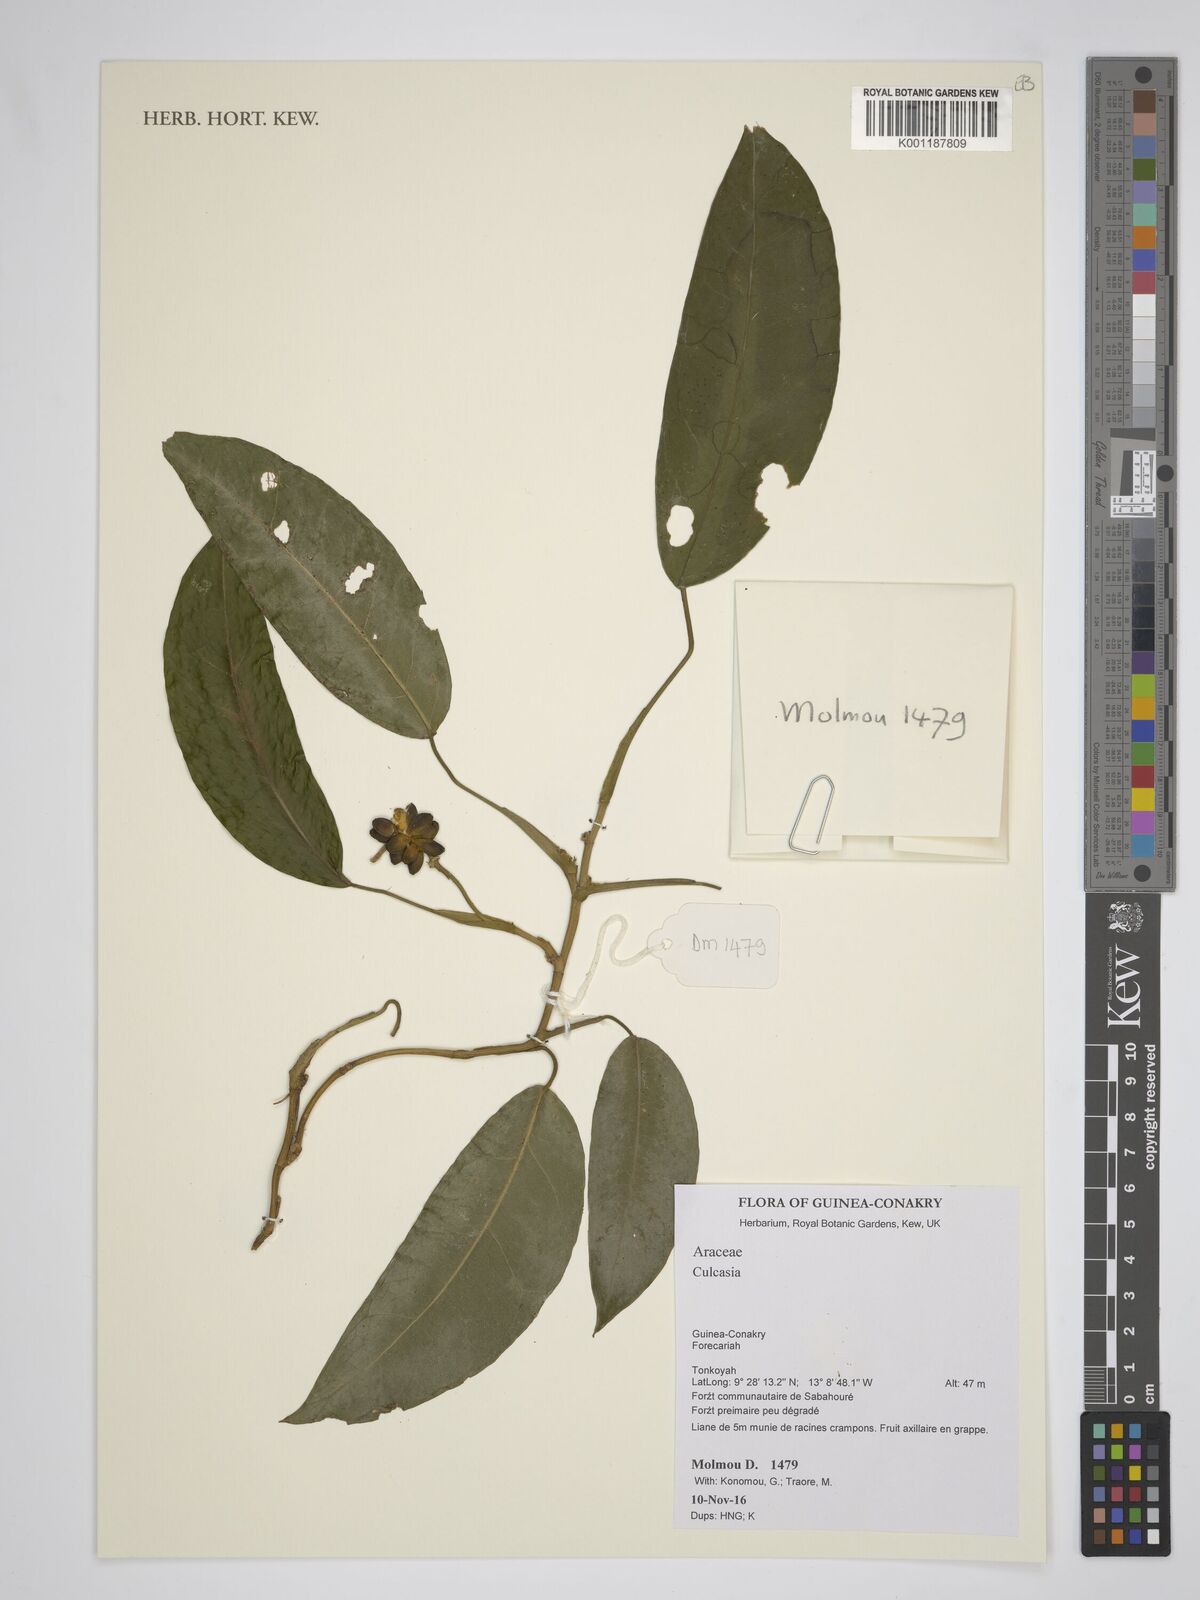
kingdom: Plantae
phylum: Tracheophyta
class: Liliopsida
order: Alismatales
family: Araceae
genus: Culcasia
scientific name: Culcasia
